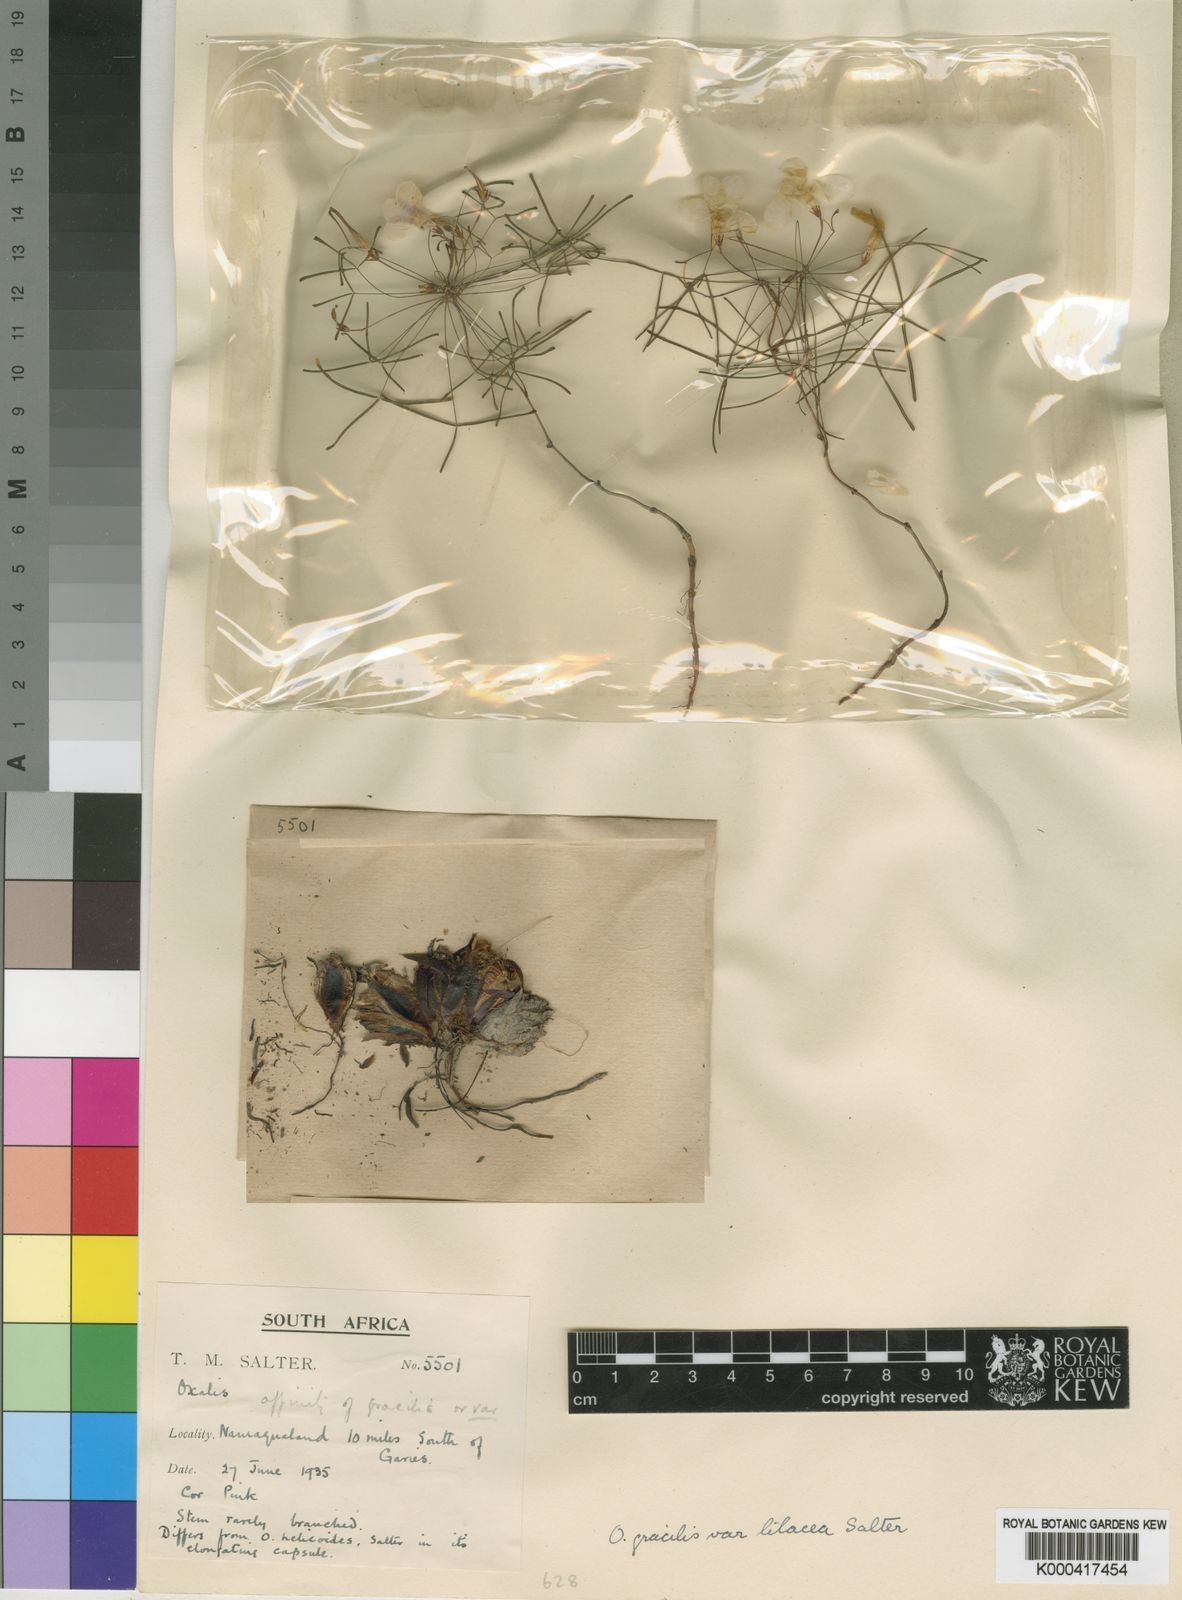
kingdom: Plantae
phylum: Tracheophyta
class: Magnoliopsida
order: Oxalidales
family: Oxalidaceae
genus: Oxalis
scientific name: Oxalis gracilis
